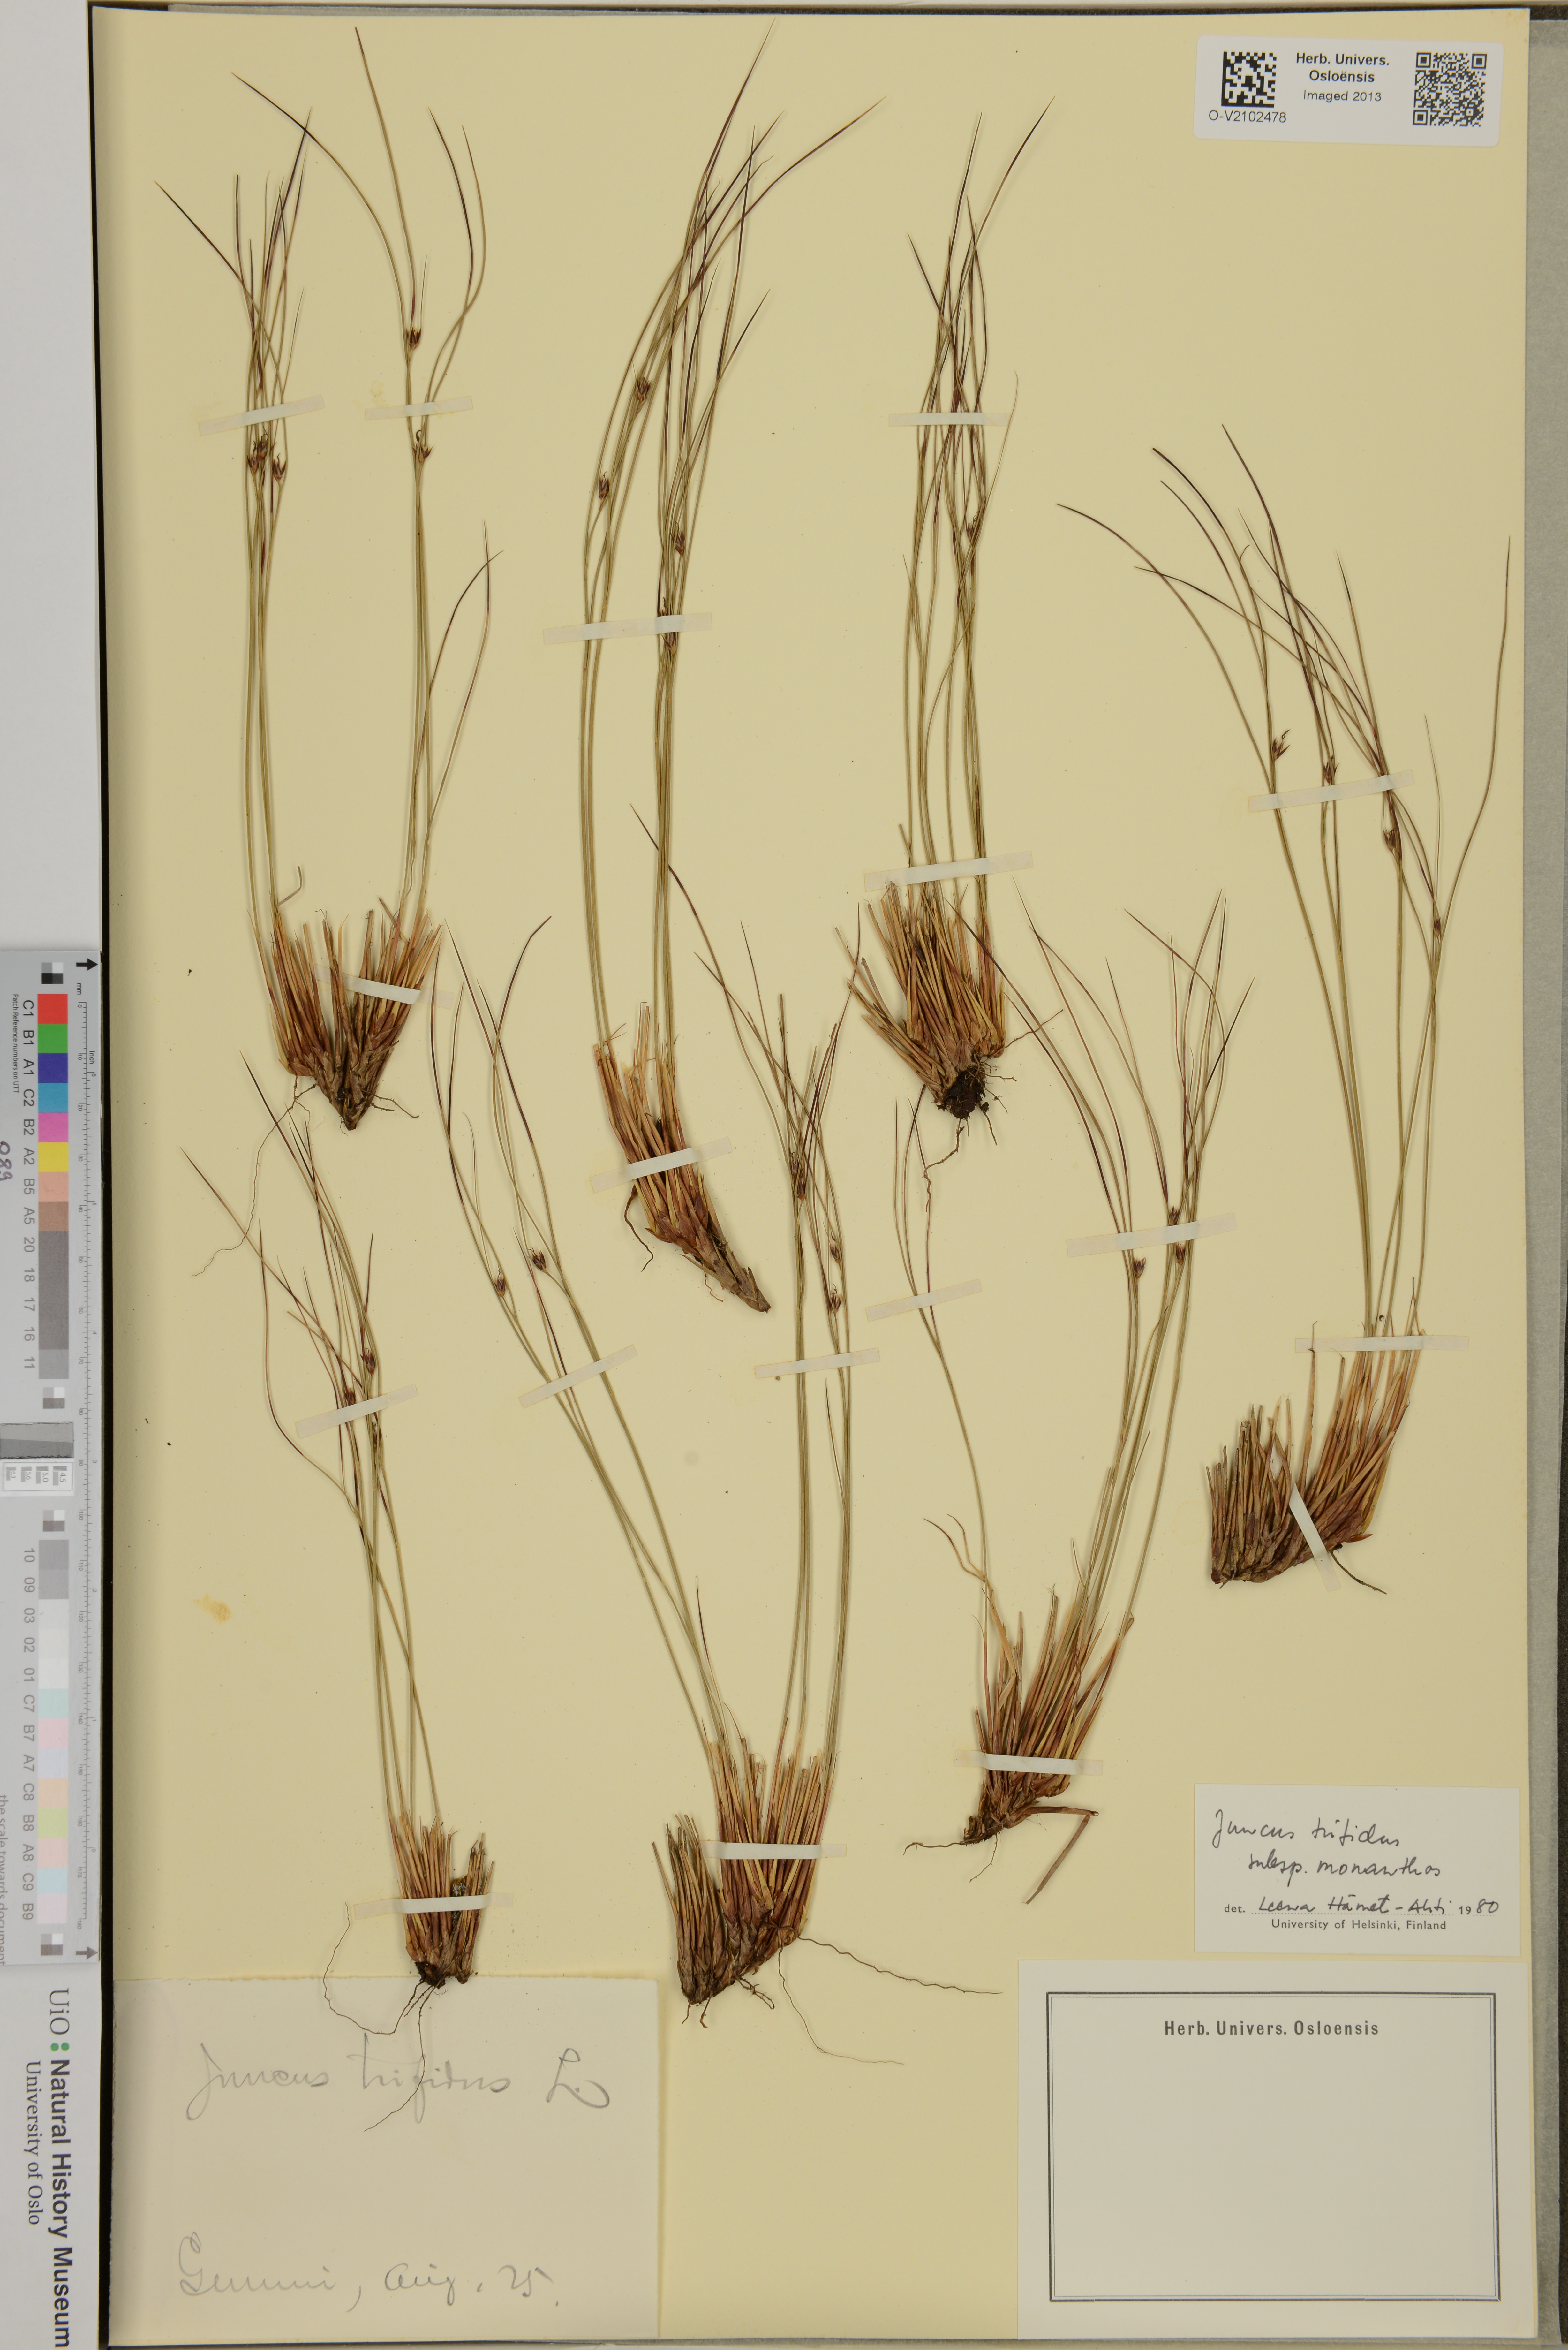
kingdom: Plantae
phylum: Tracheophyta
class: Liliopsida
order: Poales
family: Juncaceae
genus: Oreojuncus
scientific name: Oreojuncus trifidus
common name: Highland rush
